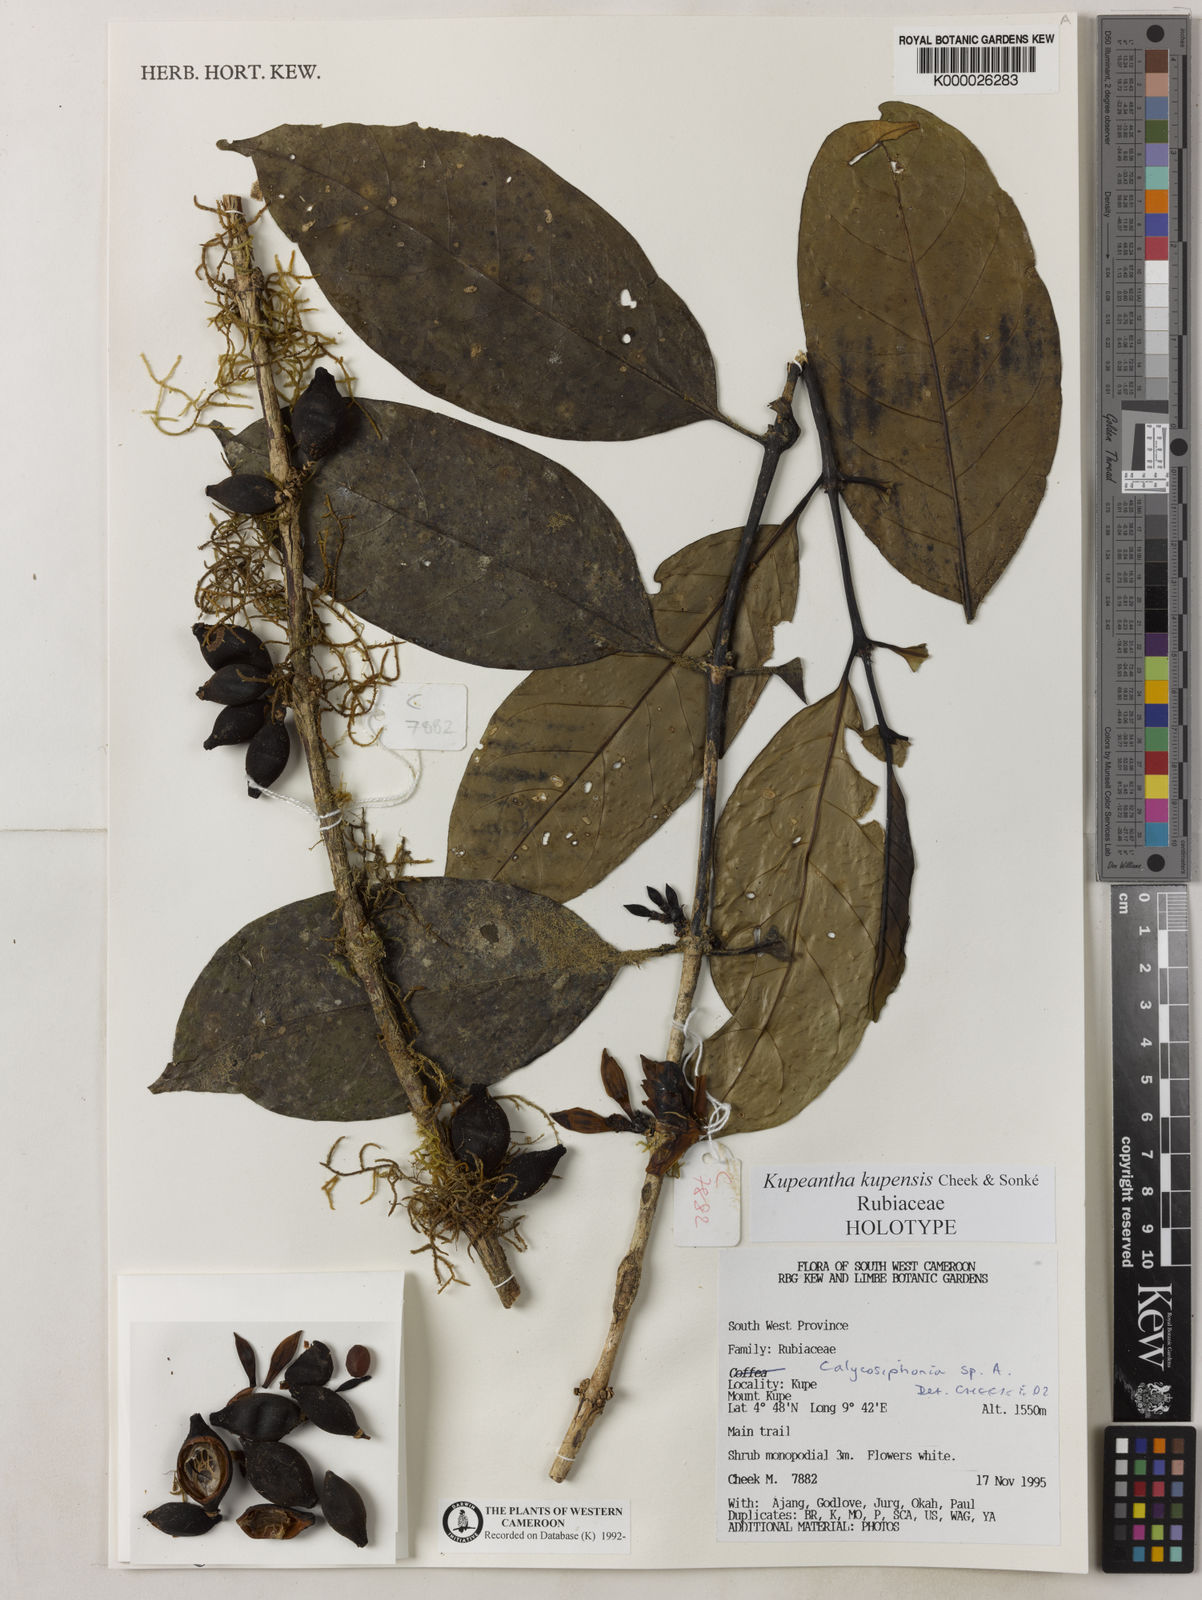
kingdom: Plantae
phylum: Tracheophyta
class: Magnoliopsida
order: Gentianales
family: Rubiaceae
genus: Kupeantha
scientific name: Kupeantha
